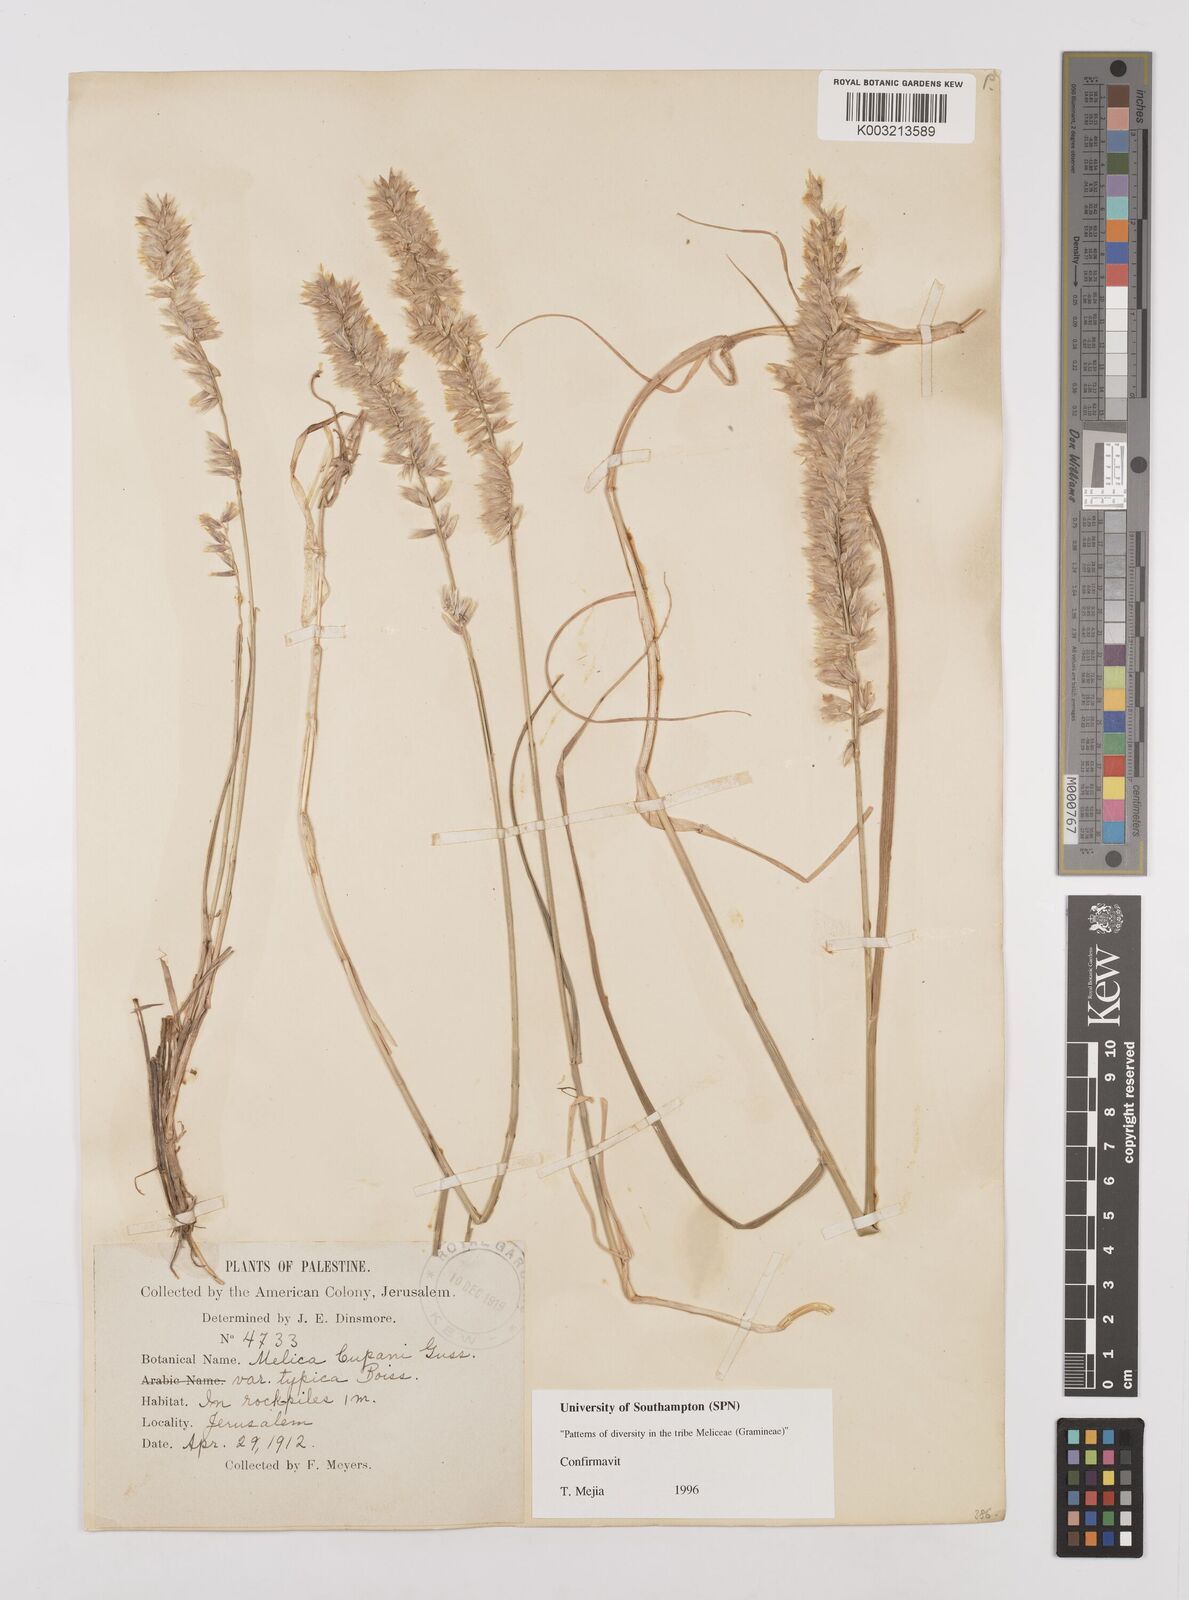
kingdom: Plantae
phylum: Tracheophyta
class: Liliopsida
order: Poales
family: Poaceae
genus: Melica
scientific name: Melica cupani
